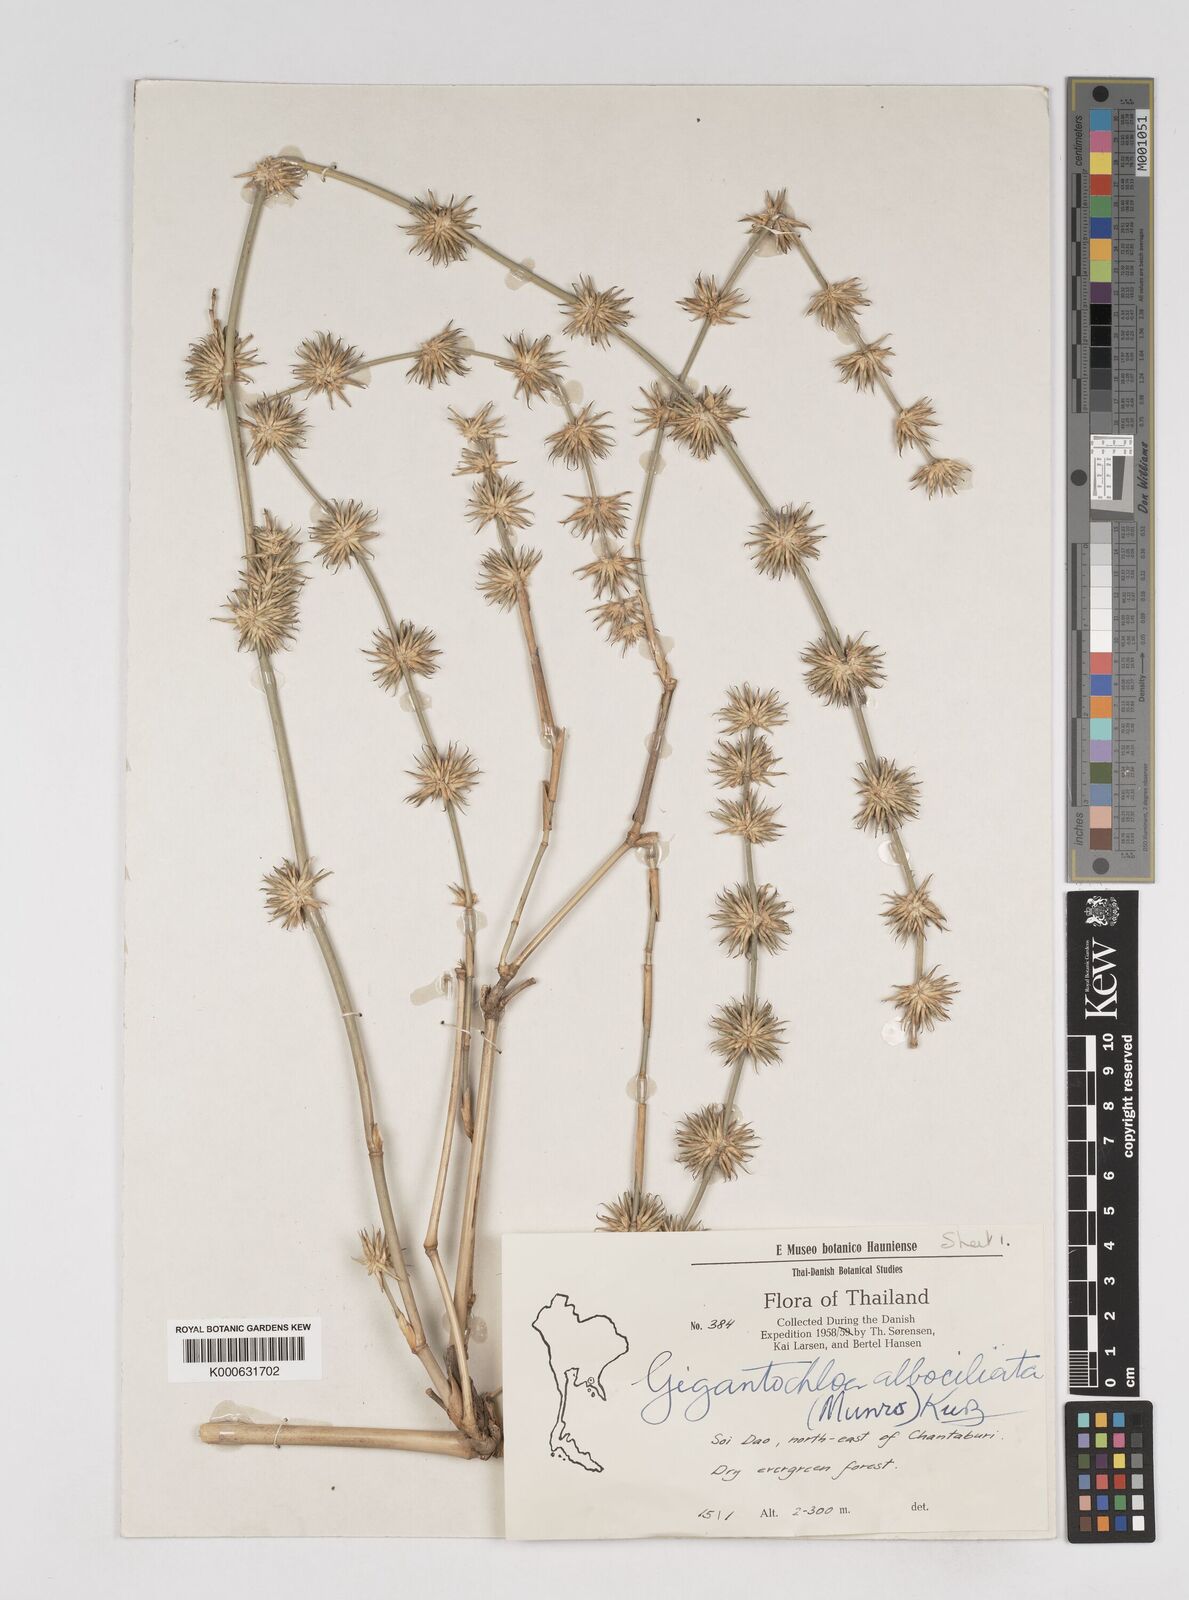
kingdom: Plantae
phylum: Tracheophyta
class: Liliopsida
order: Poales
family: Poaceae
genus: Gigantochloa
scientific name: Gigantochloa albociliata
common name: White-fringe gigantochloa
